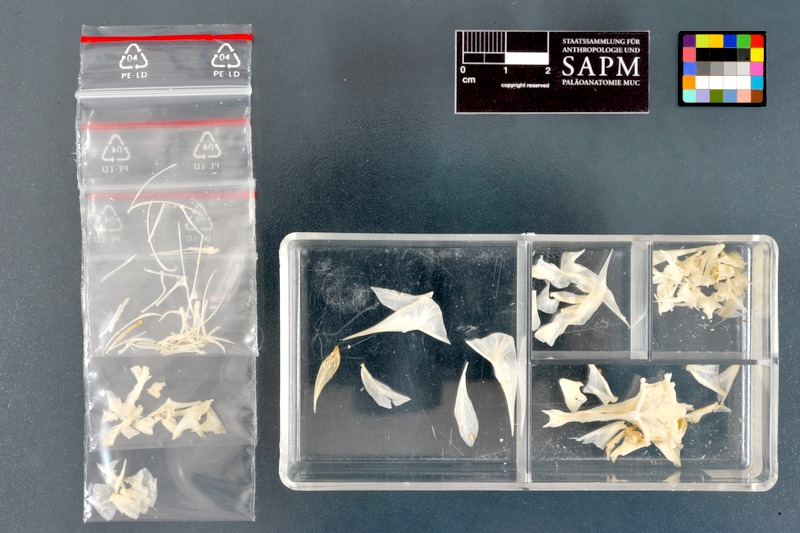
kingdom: Animalia
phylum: Chordata
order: Tetraodontiformes
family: Tetraodontidae
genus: Sphoeroides
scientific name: Sphoeroides spengleri
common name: Bandtail puffer
